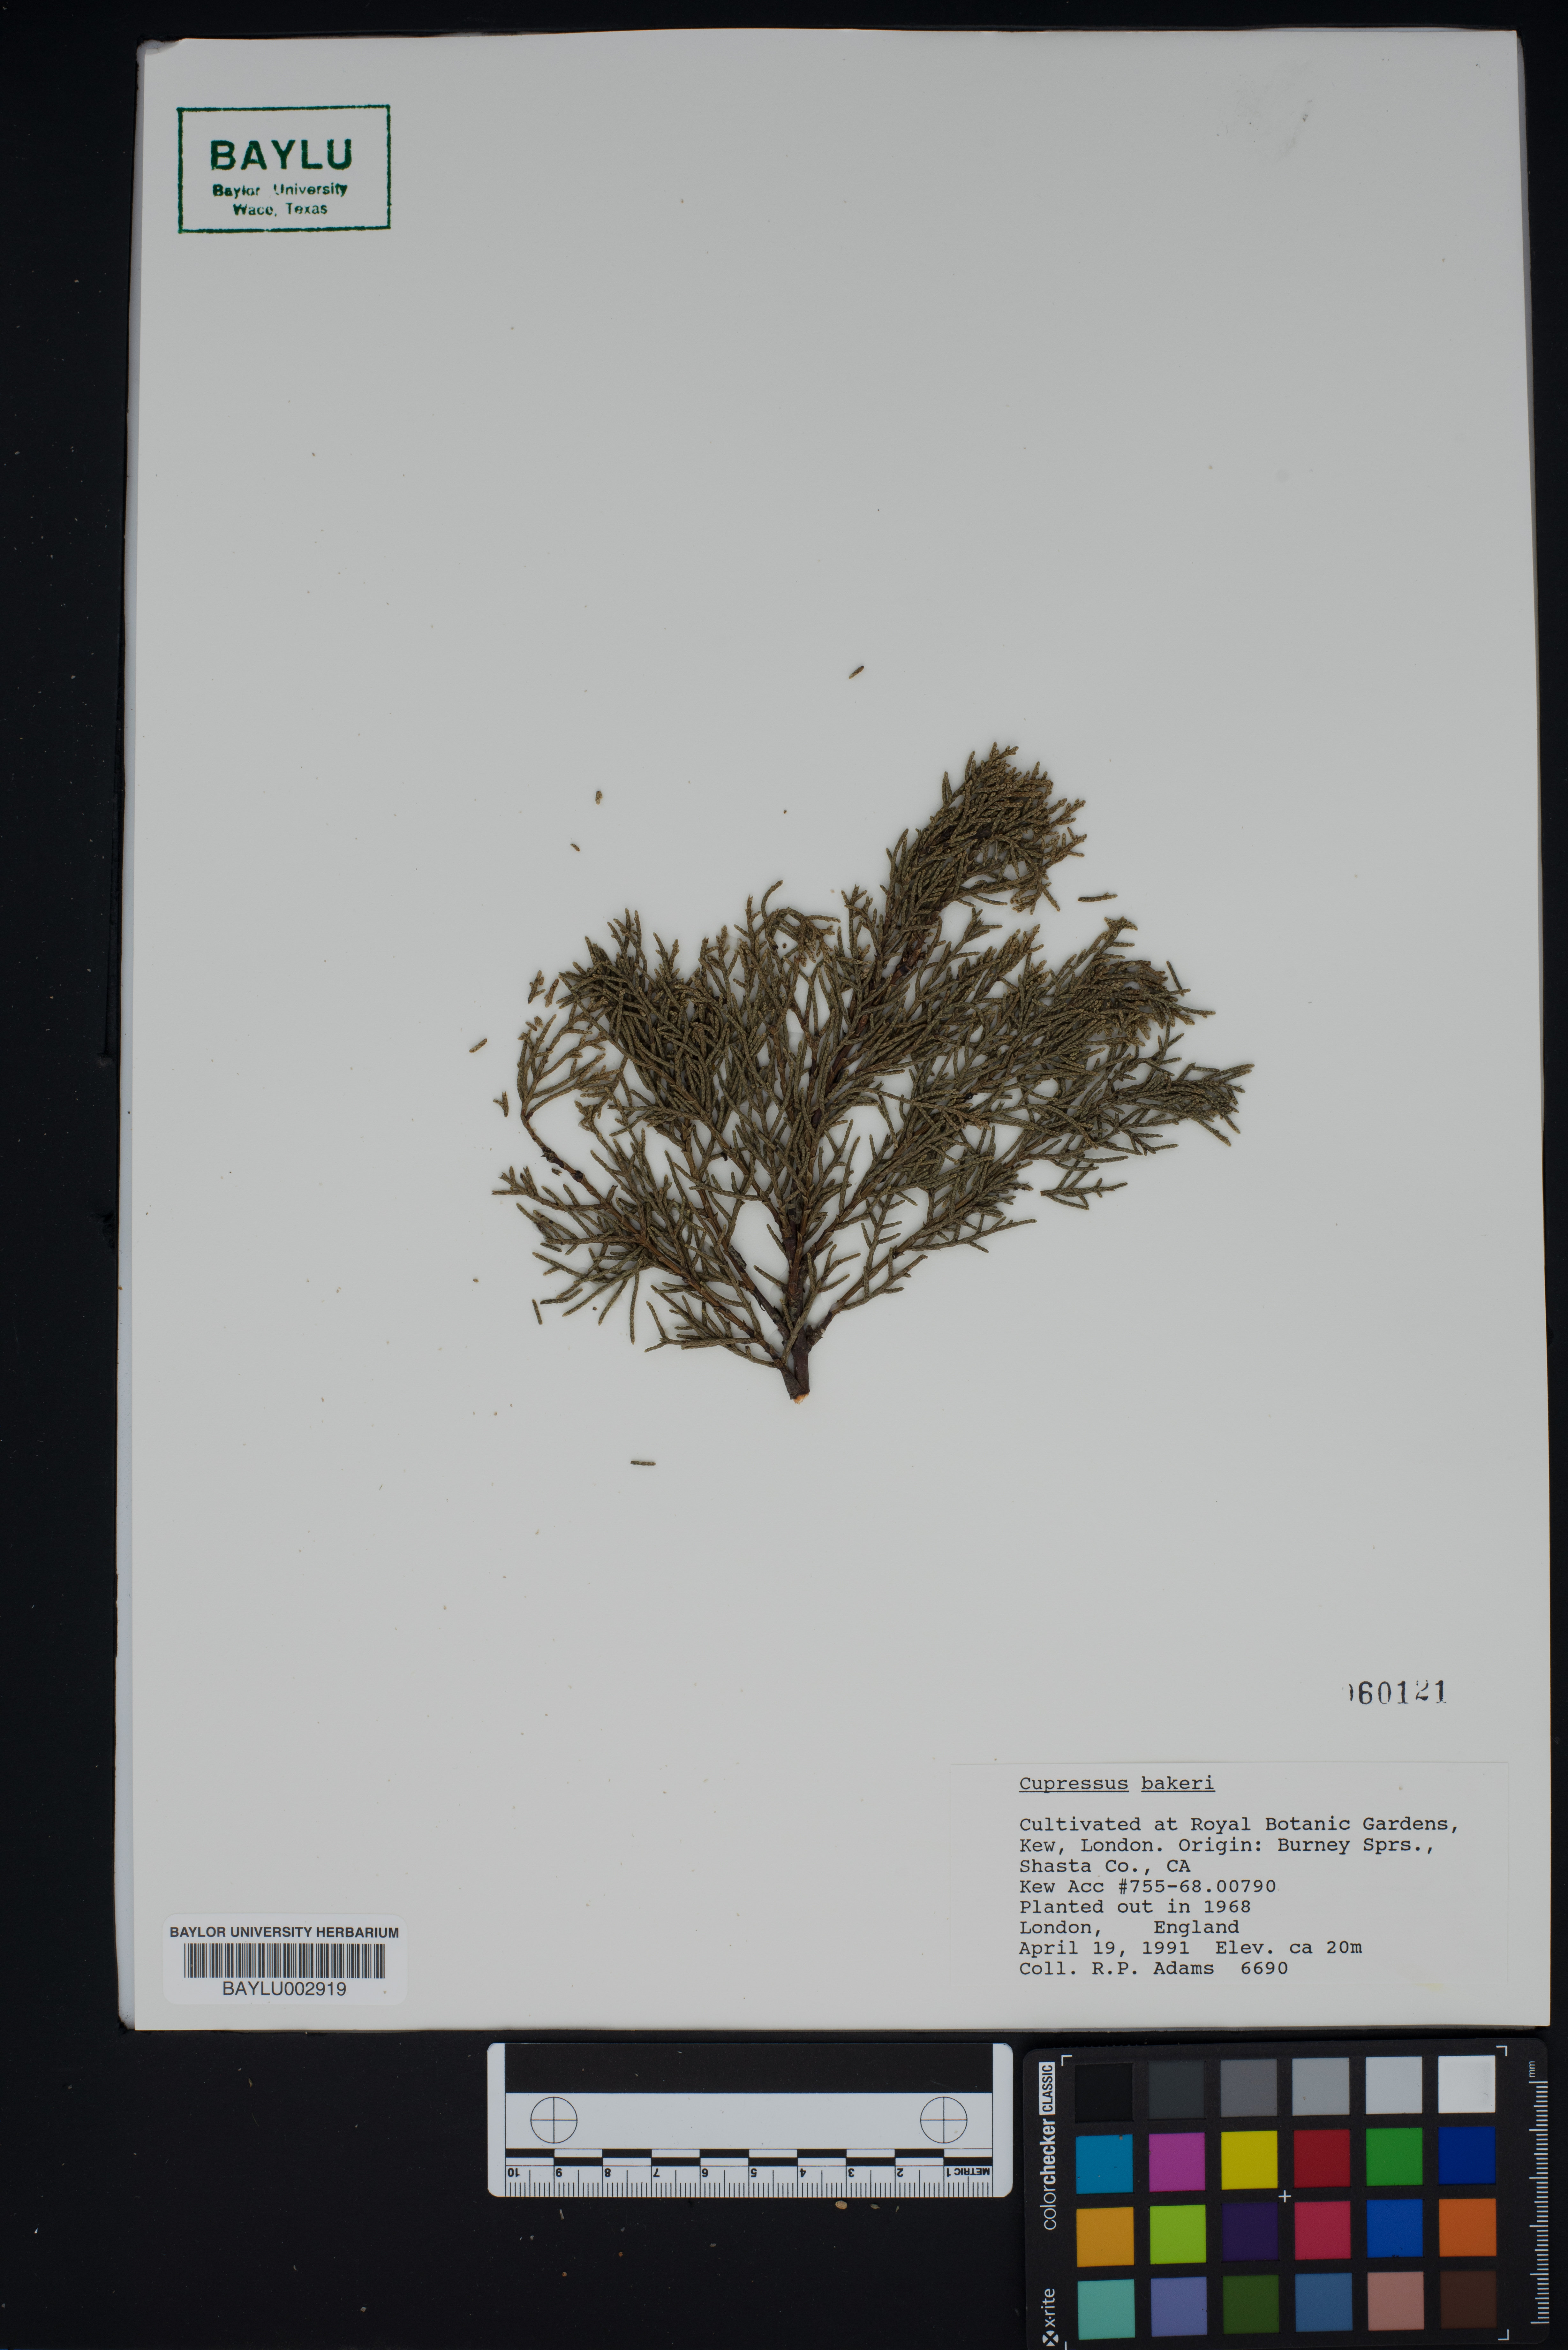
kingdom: Plantae
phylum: Tracheophyta
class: Pinopsida
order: Pinales
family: Cupressaceae
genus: Cupressus
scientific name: Cupressus bakeri
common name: Baker cypress
